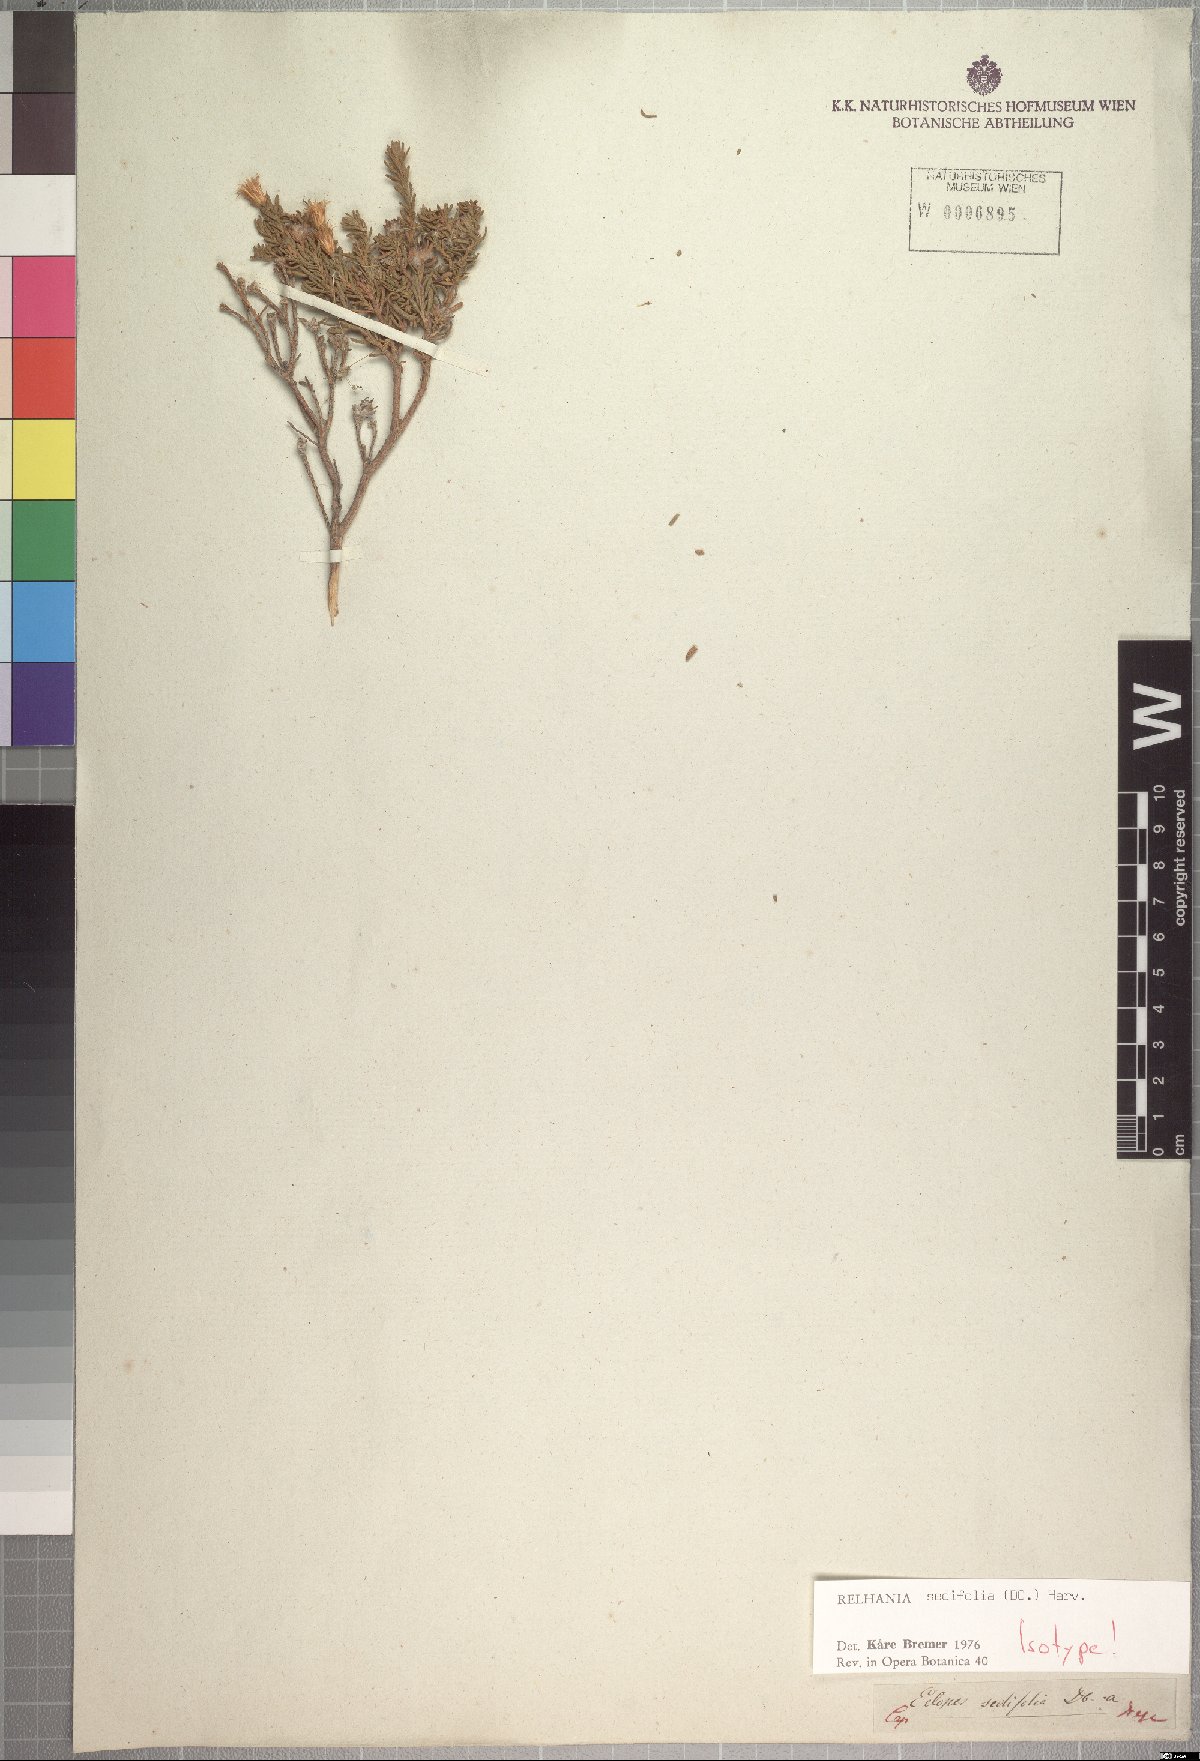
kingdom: Plantae
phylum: Tracheophyta
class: Magnoliopsida
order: Asterales
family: Asteraceae
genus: Oedera
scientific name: Oedera sedifolia
